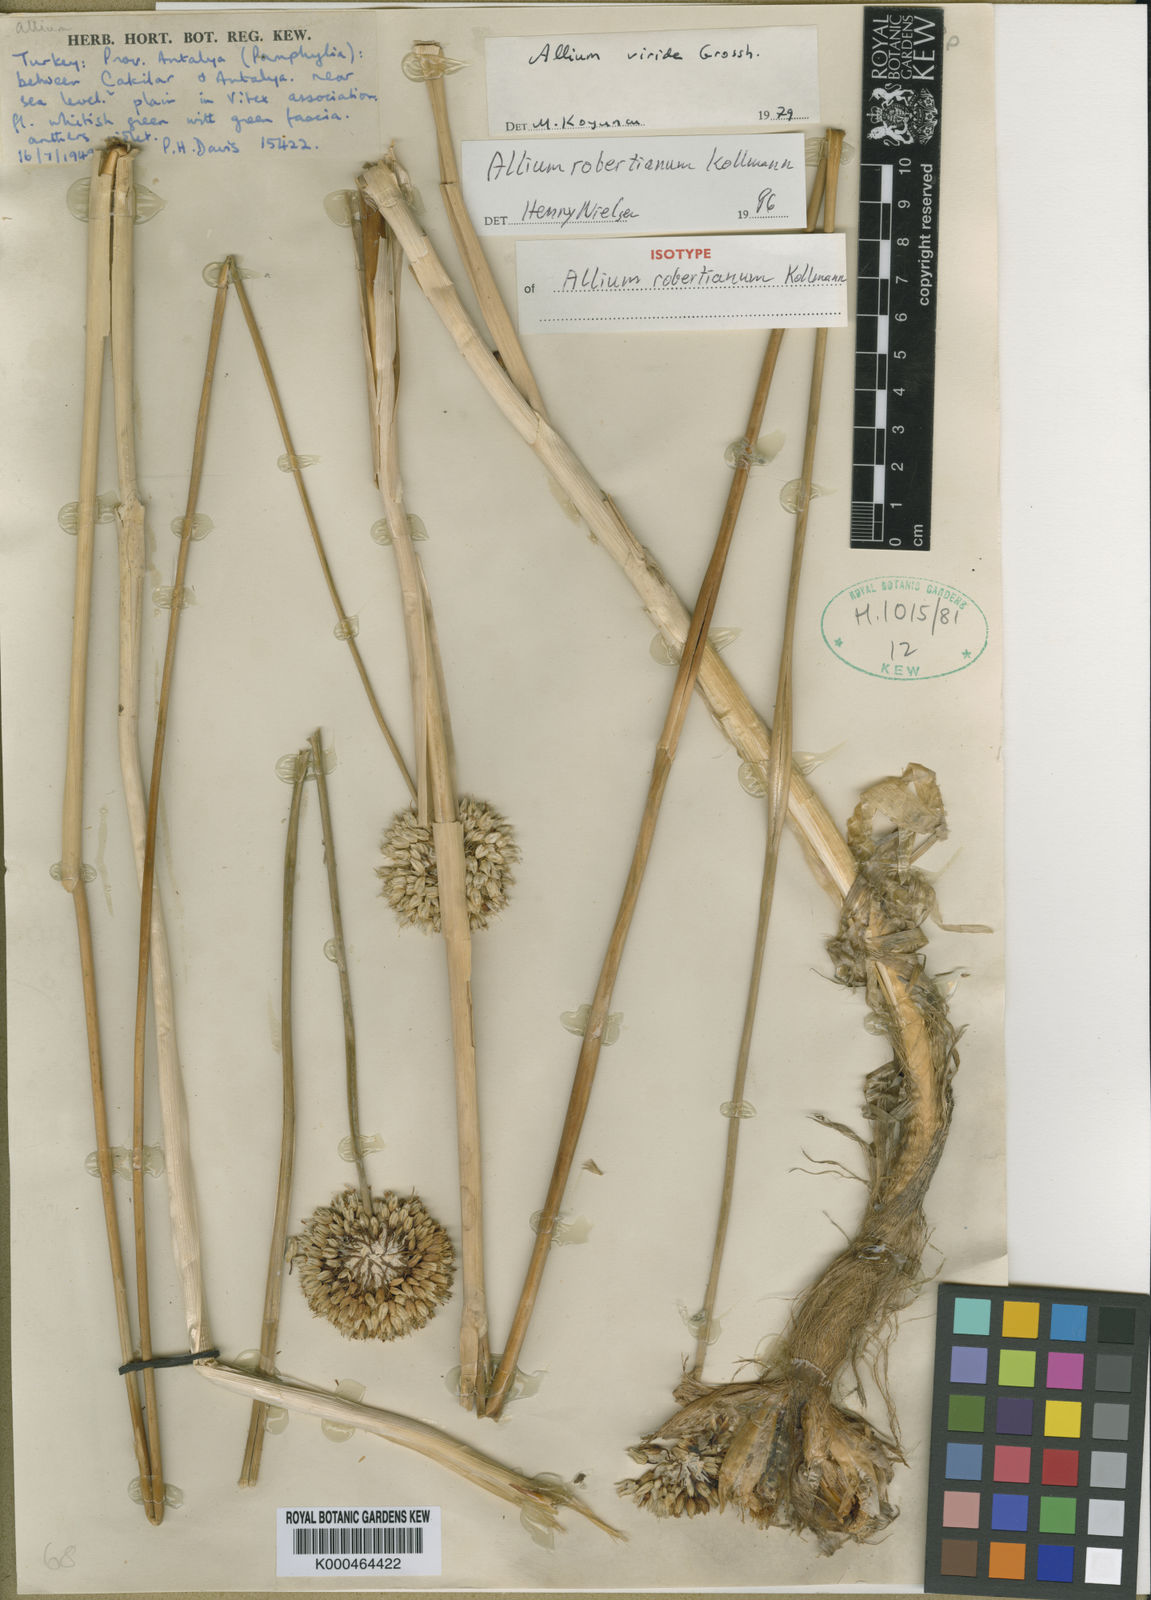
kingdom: Plantae
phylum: Tracheophyta
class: Liliopsida
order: Asparagales
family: Amaryllidaceae
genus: Allium
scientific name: Allium robertianum
